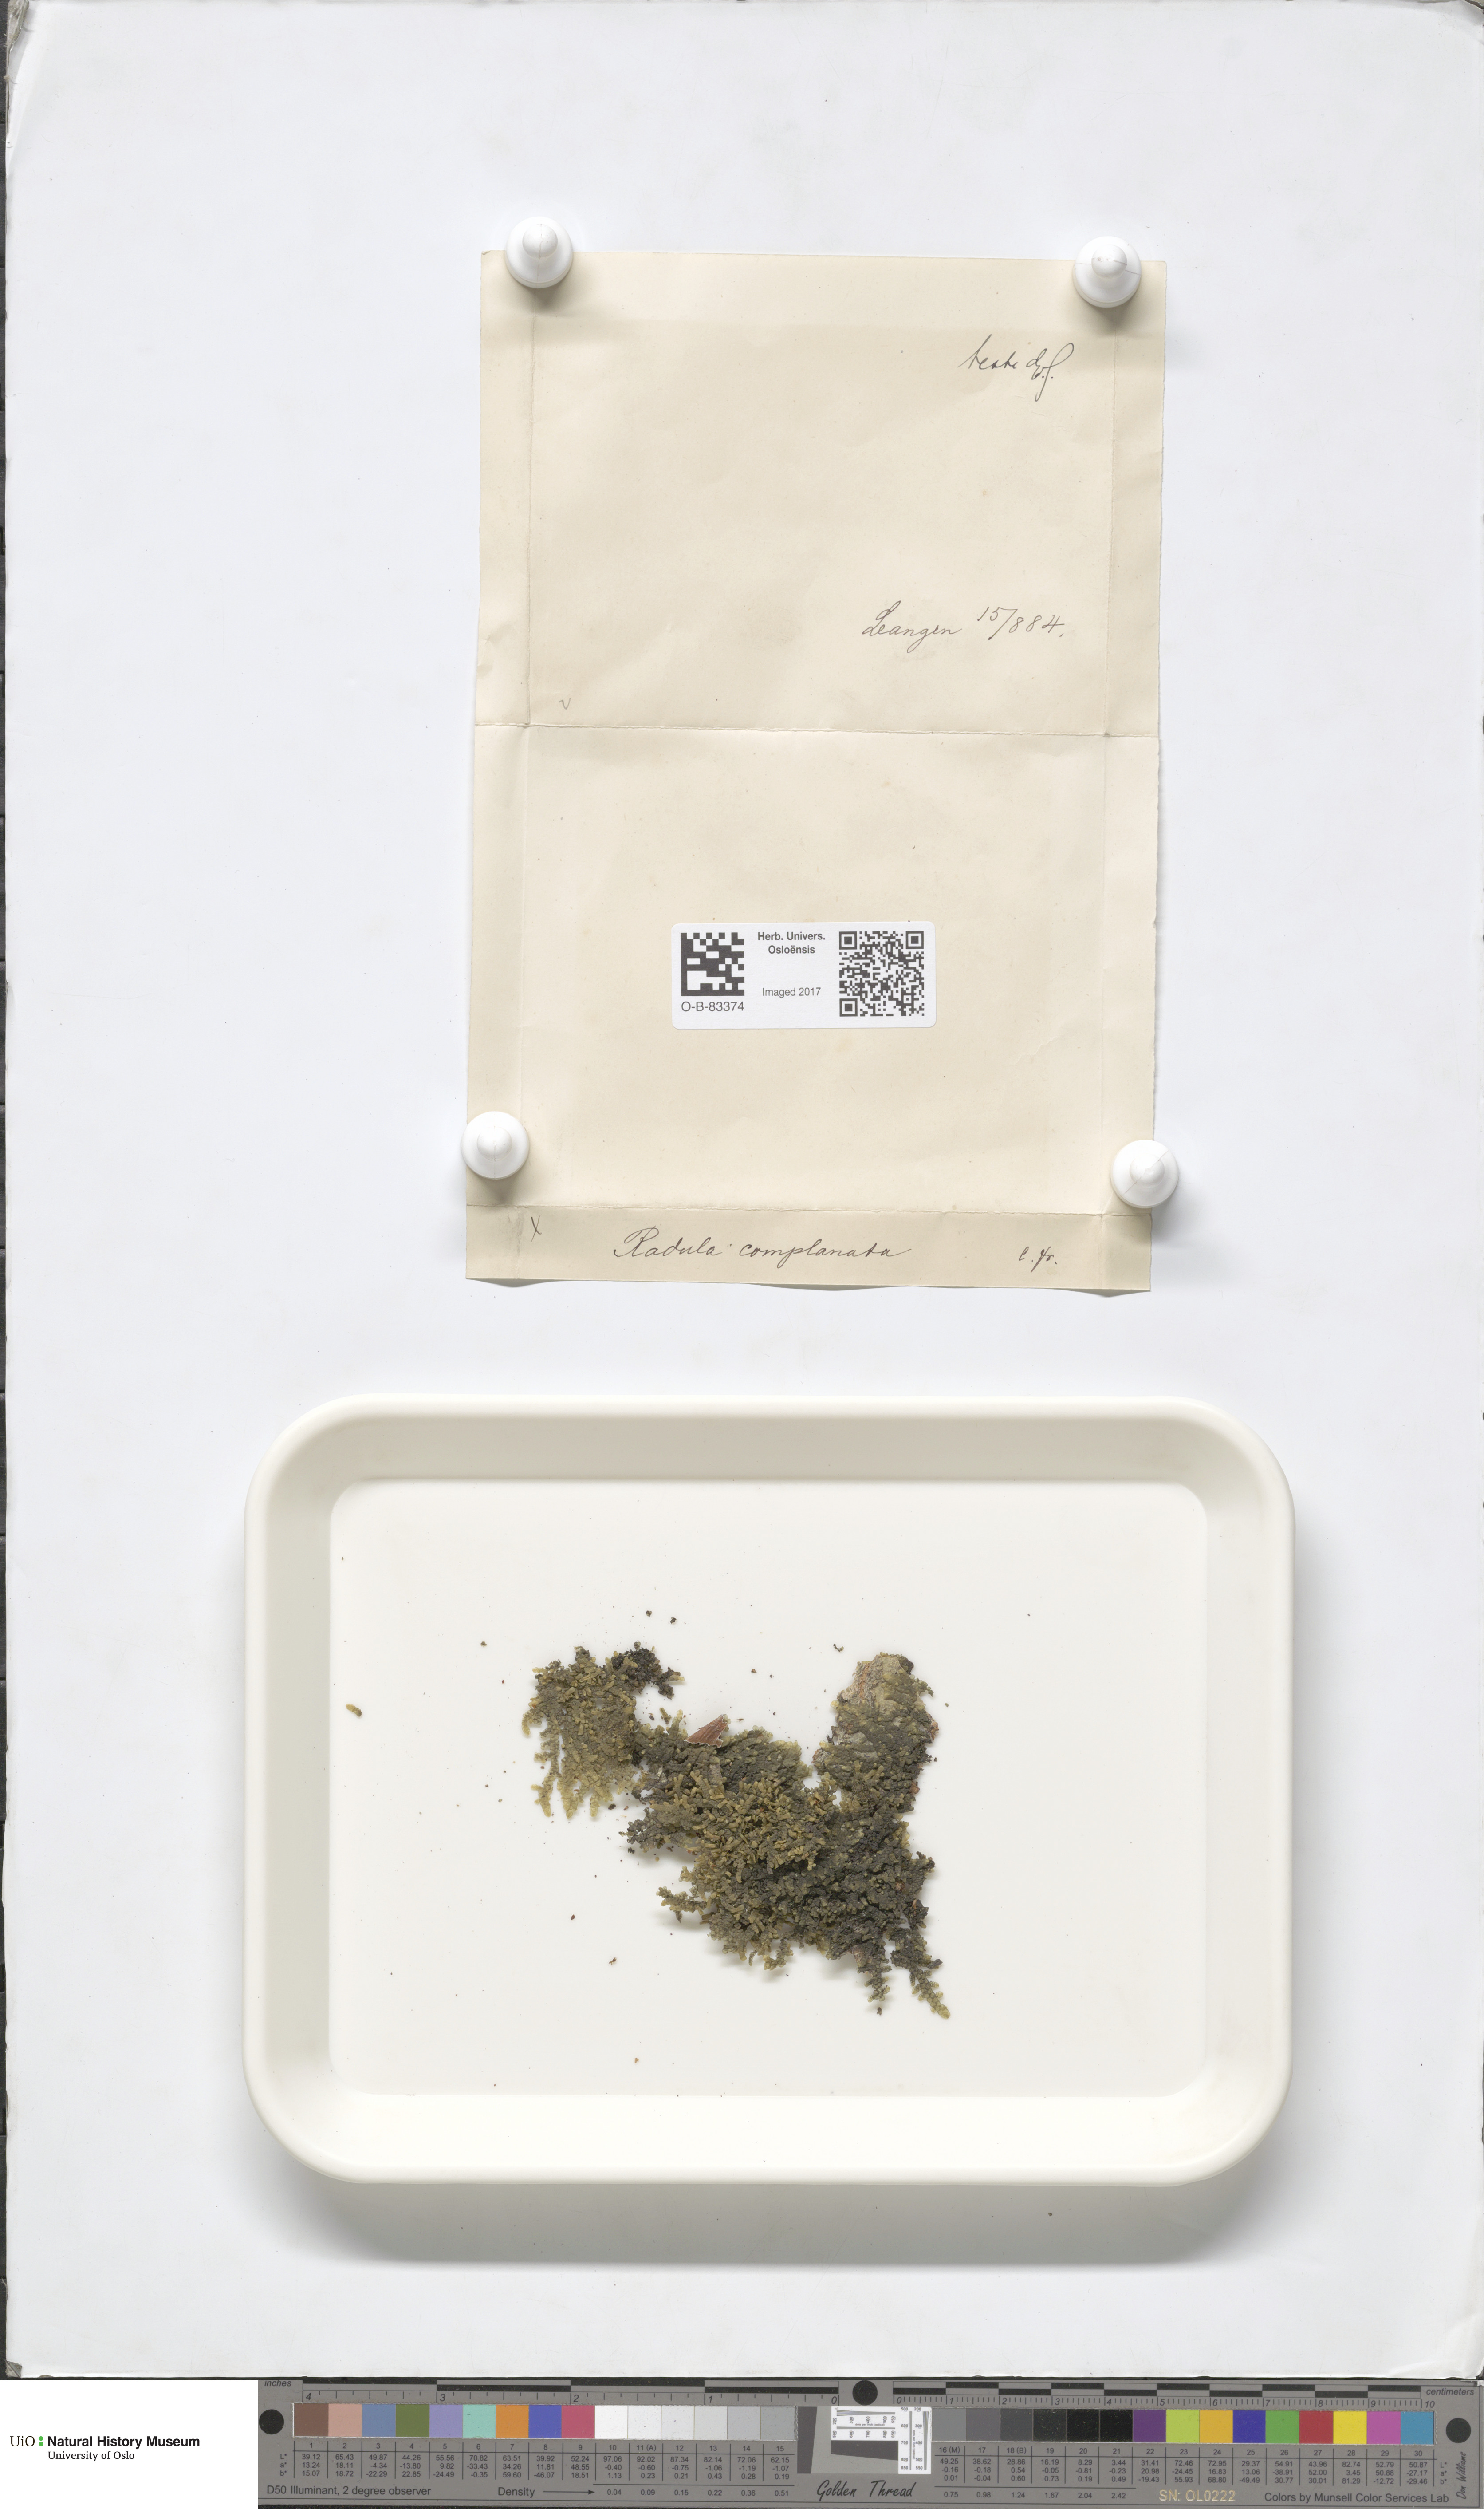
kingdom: Plantae
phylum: Marchantiophyta
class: Jungermanniopsida
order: Porellales
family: Radulaceae
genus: Radula
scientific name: Radula complanata
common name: Flat-leaved scalewort
